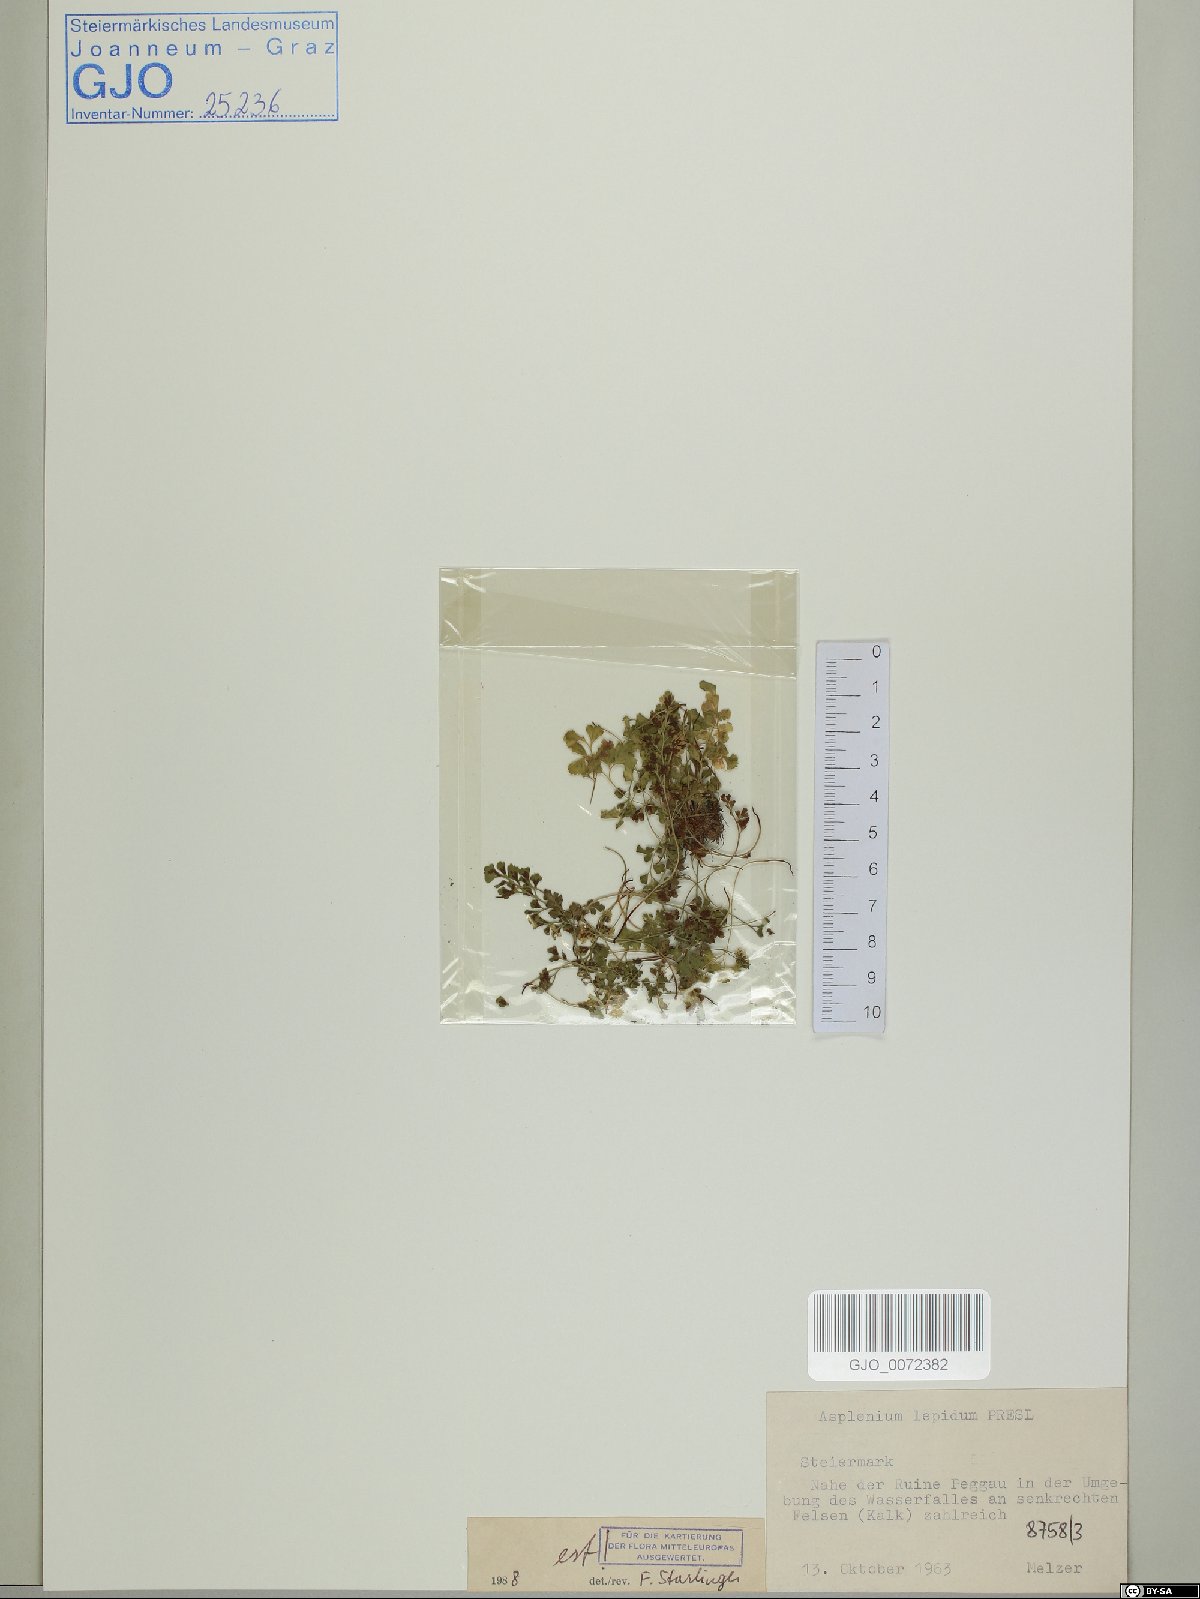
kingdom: Plantae
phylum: Tracheophyta
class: Polypodiopsida
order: Polypodiales
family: Aspleniaceae
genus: Asplenium
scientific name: Asplenium lepidum
